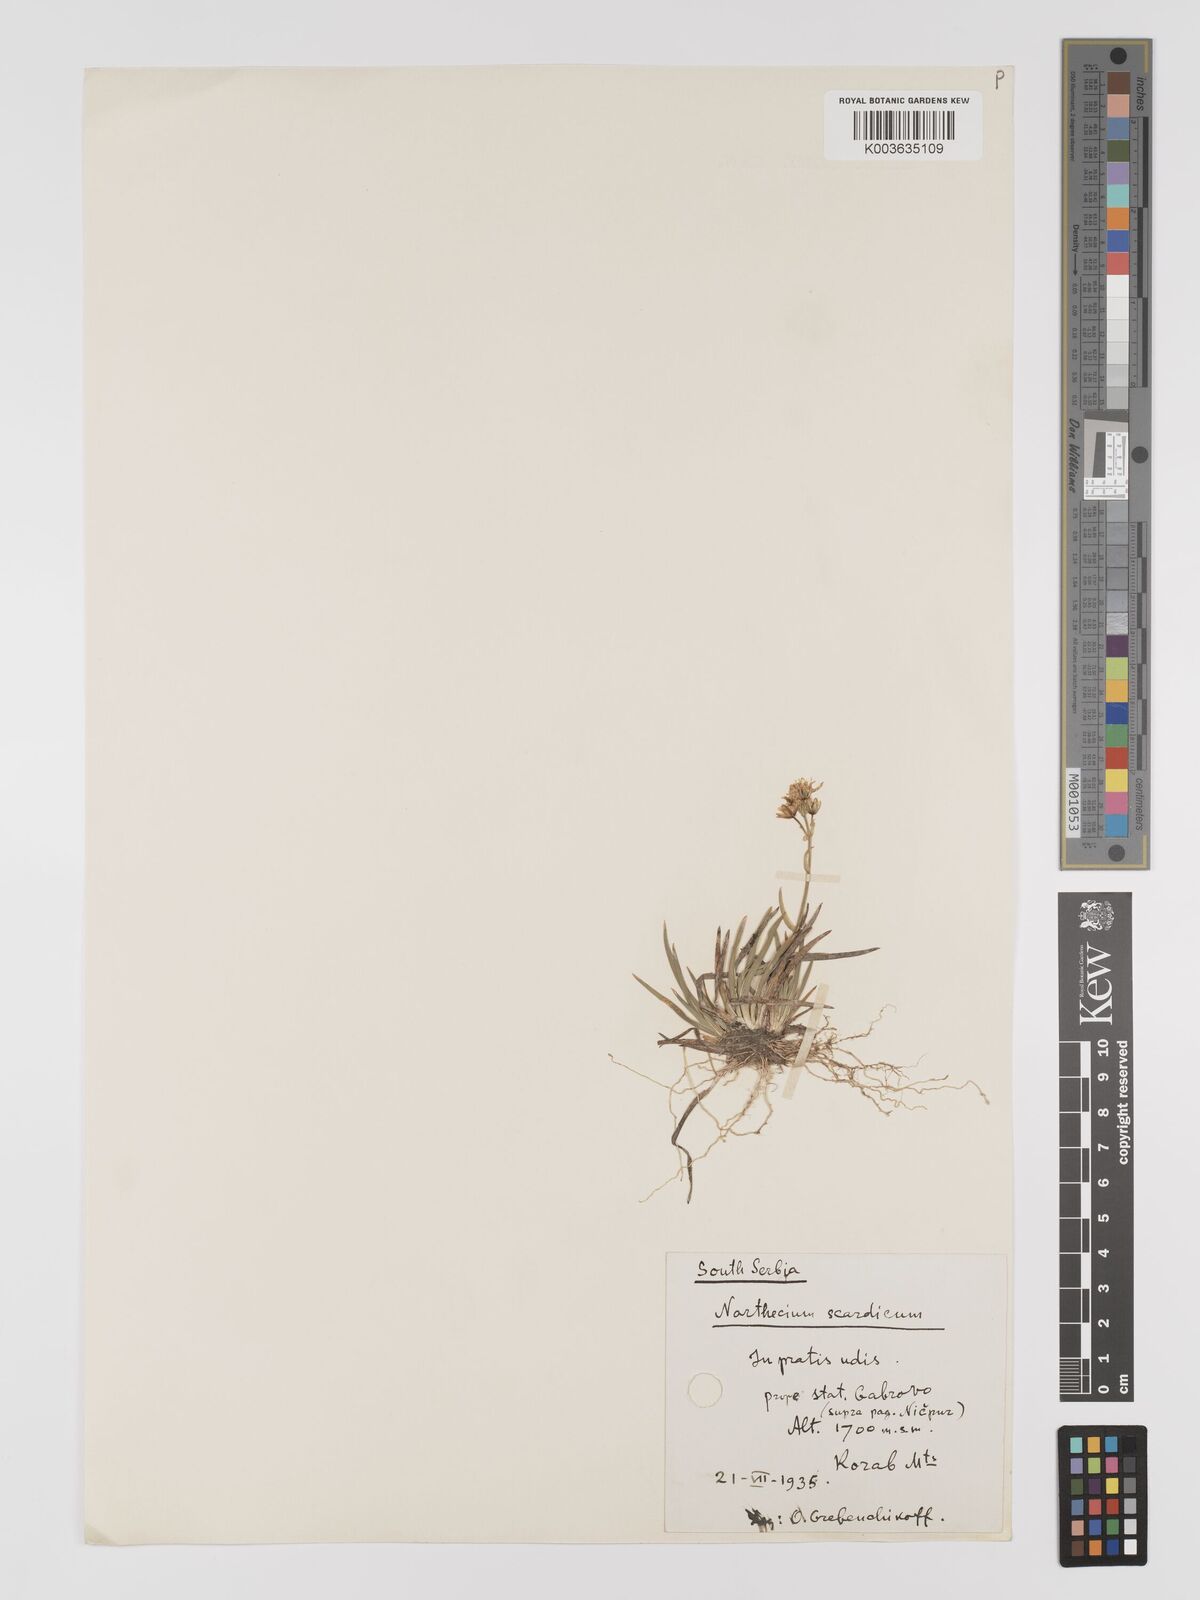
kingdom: Plantae
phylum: Tracheophyta
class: Liliopsida
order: Dioscoreales
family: Nartheciaceae
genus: Narthecium
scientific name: Narthecium scardicum
